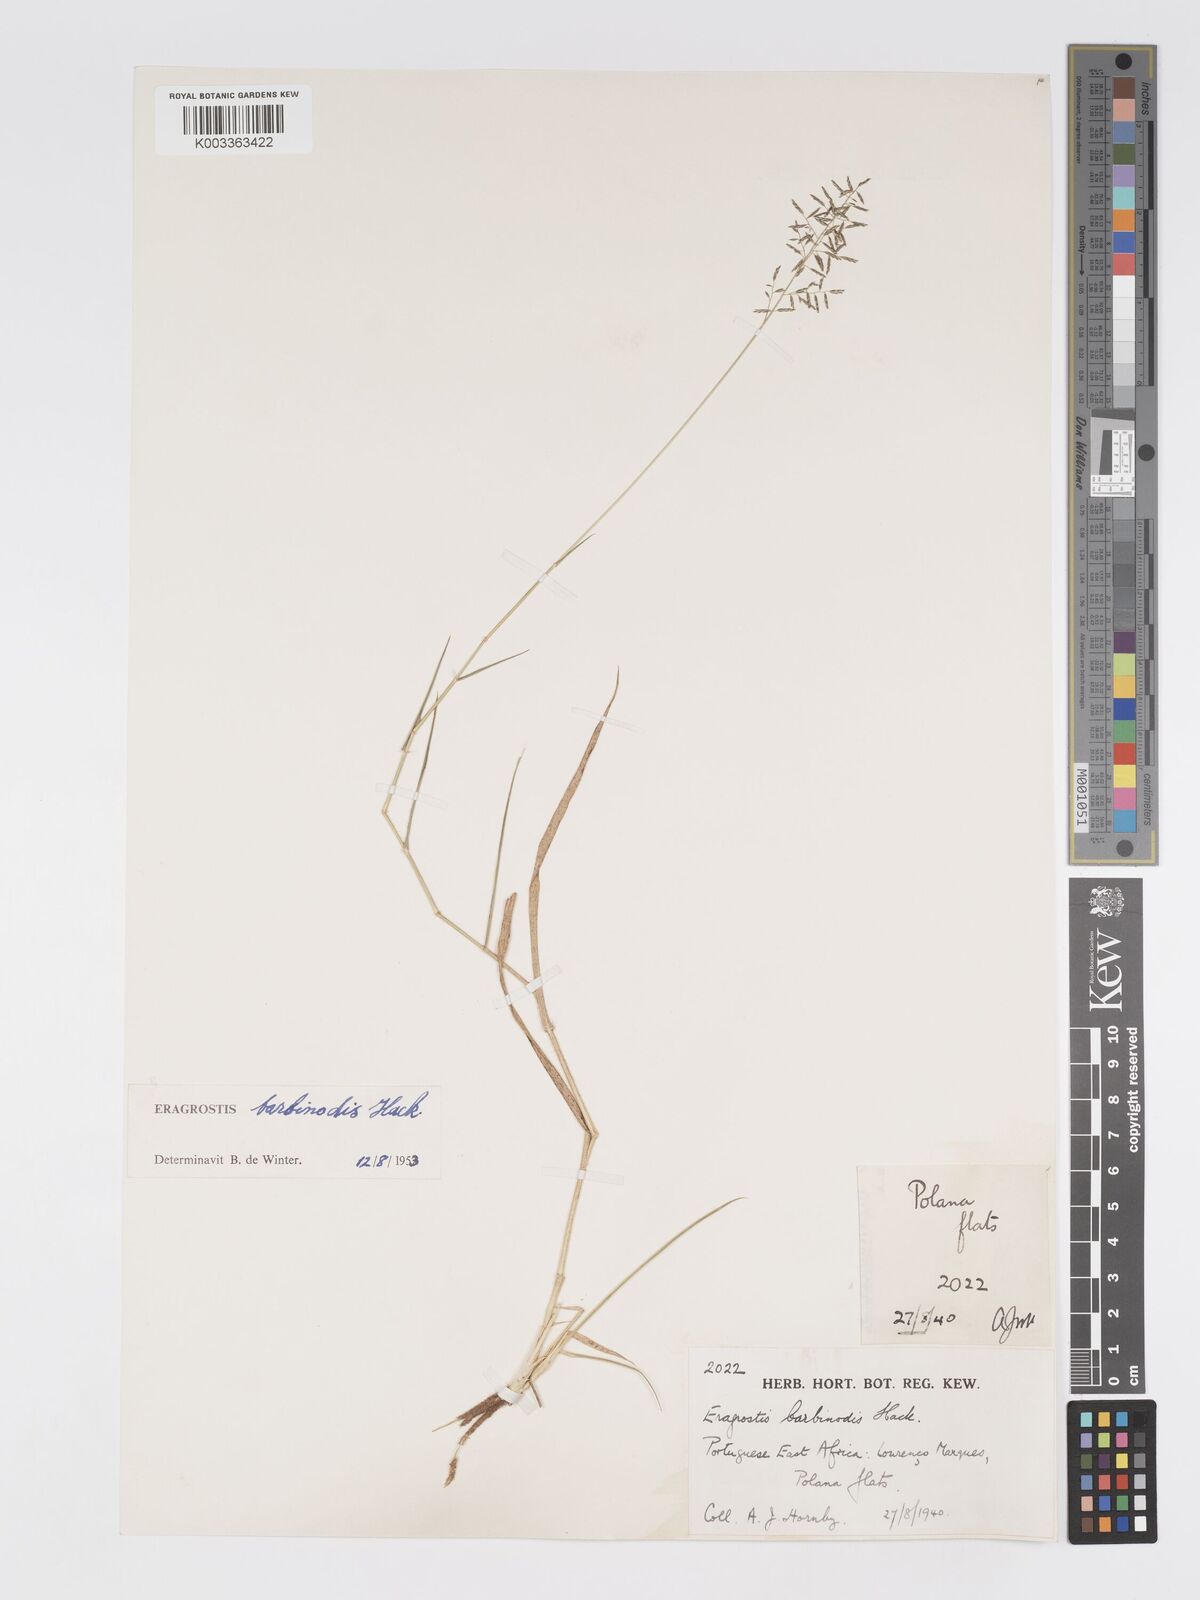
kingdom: Plantae
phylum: Tracheophyta
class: Liliopsida
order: Poales
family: Poaceae
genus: Eragrostis
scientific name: Eragrostis barbinodis
